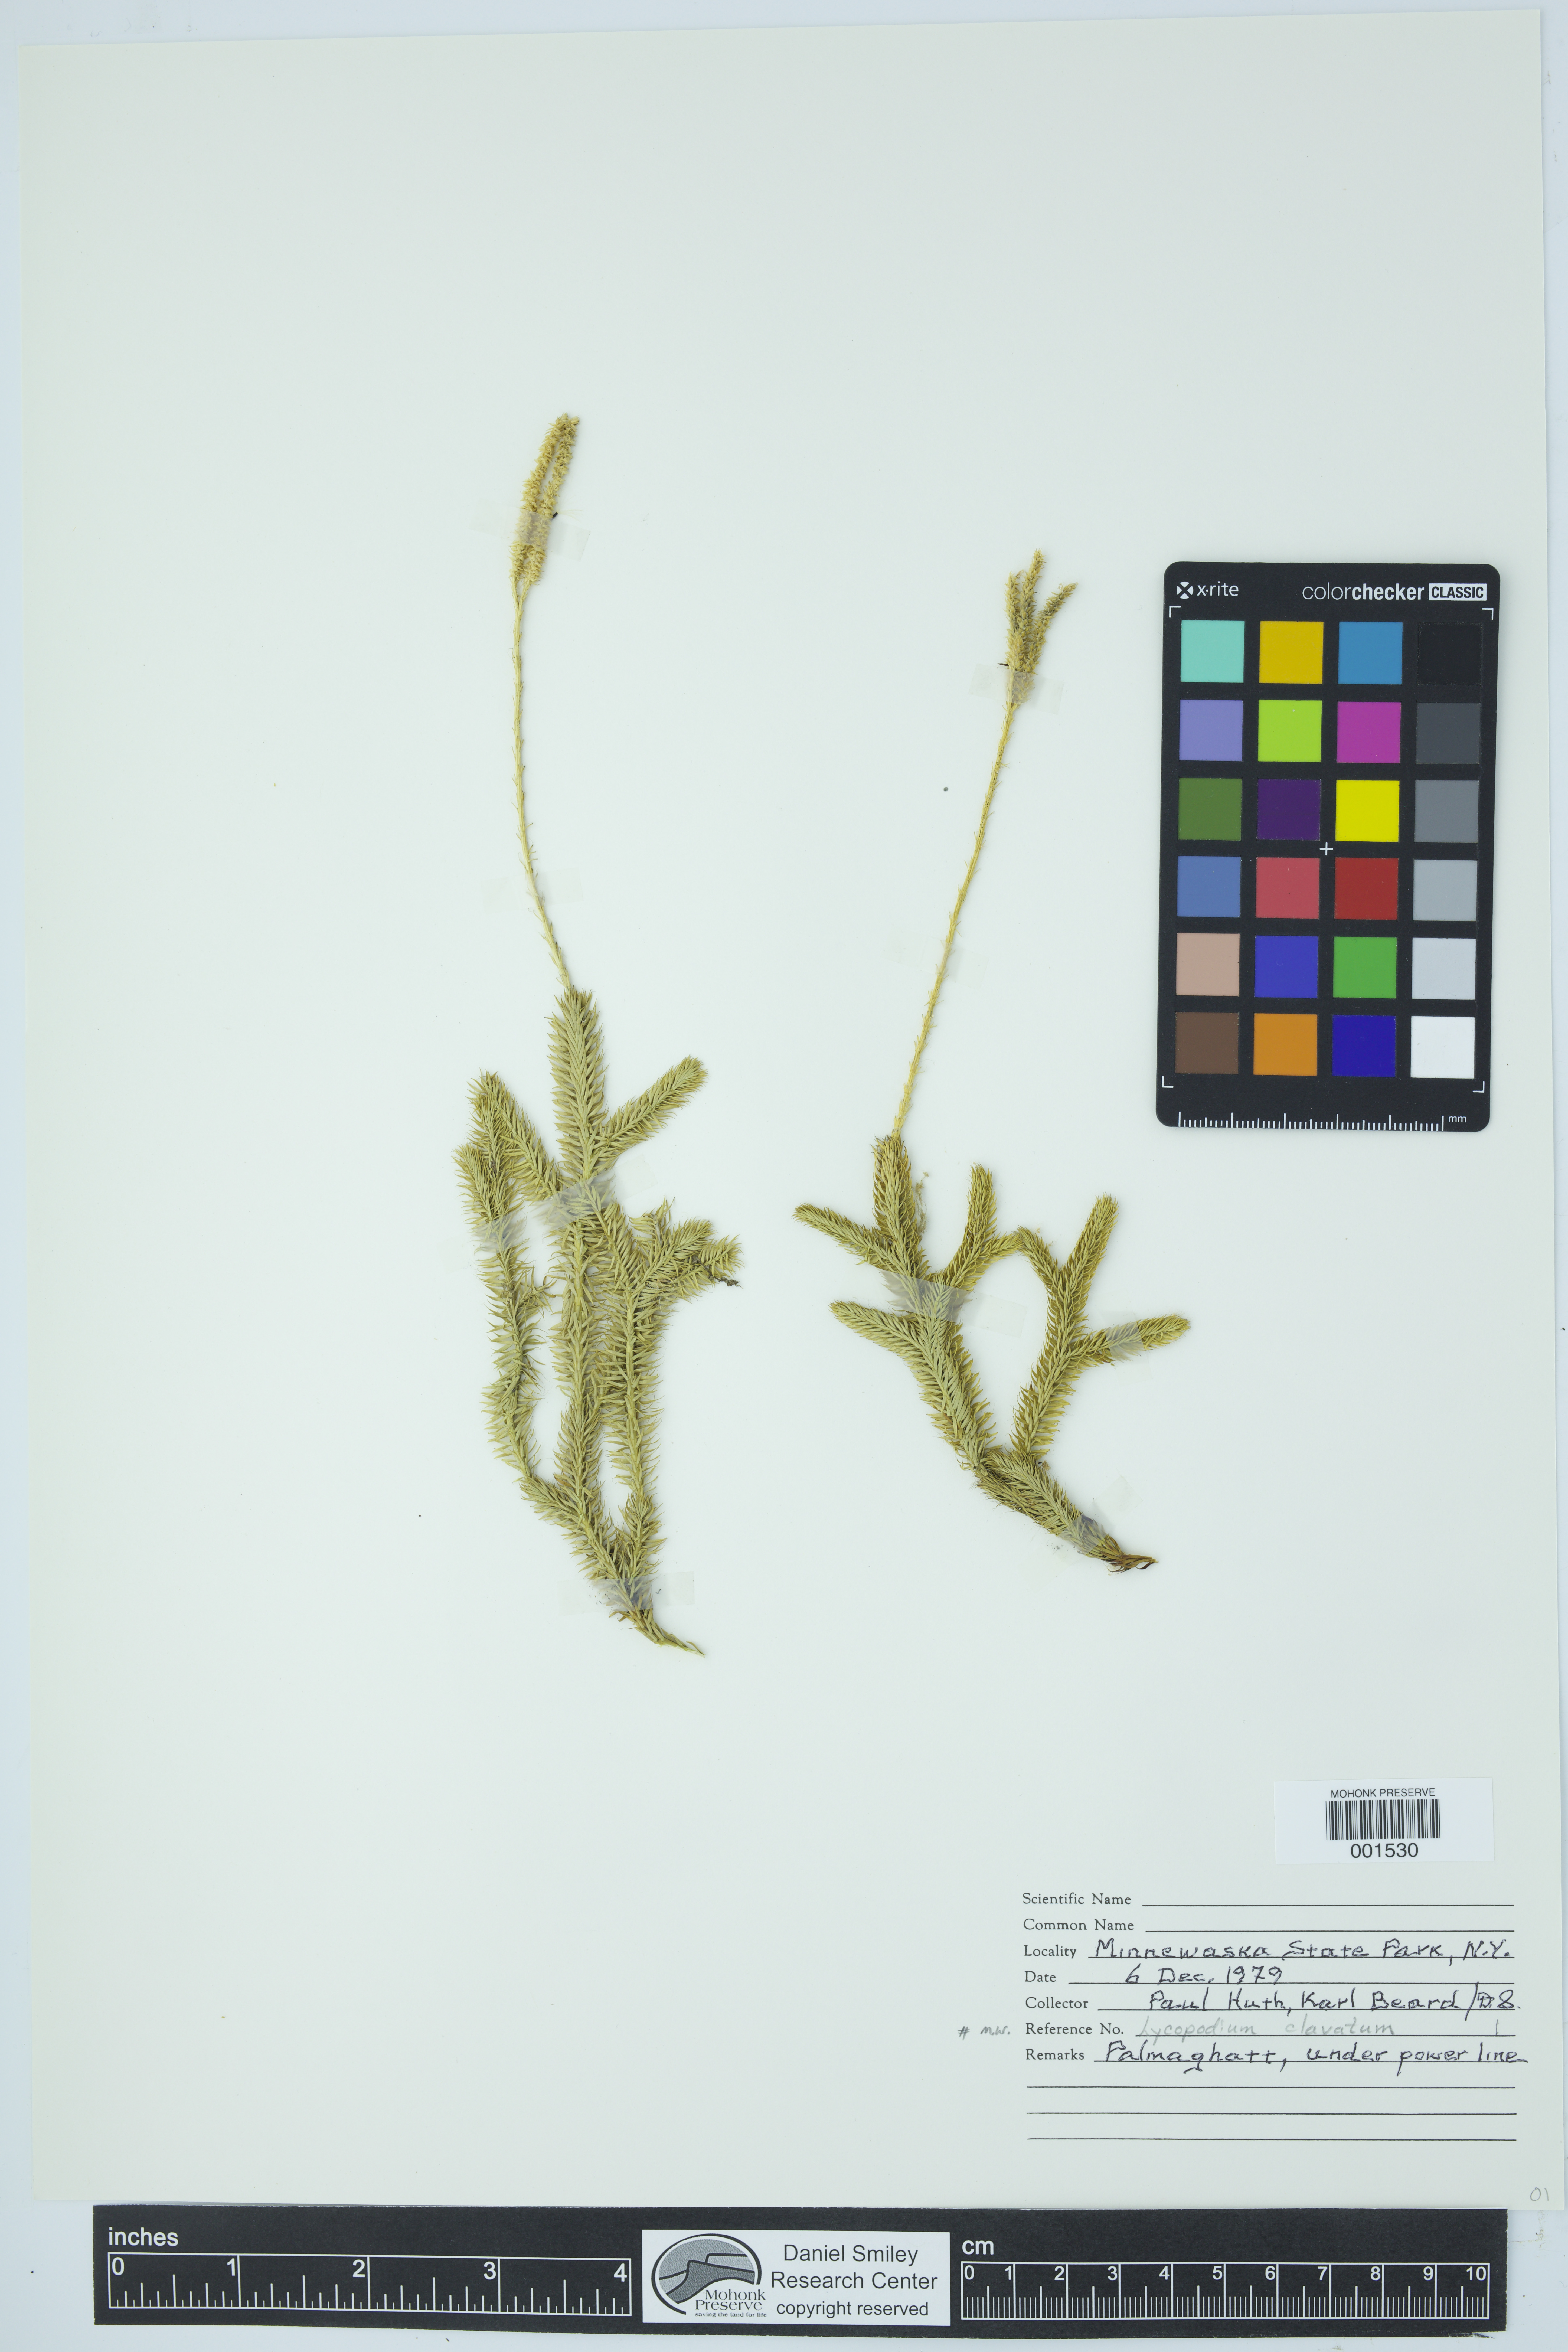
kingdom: Plantae
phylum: Tracheophyta
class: Lycopodiopsida
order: Lycopodiales
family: Lycopodiaceae
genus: Lycopodium
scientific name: Lycopodium clavatum
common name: Stag's-horn clubmoss
